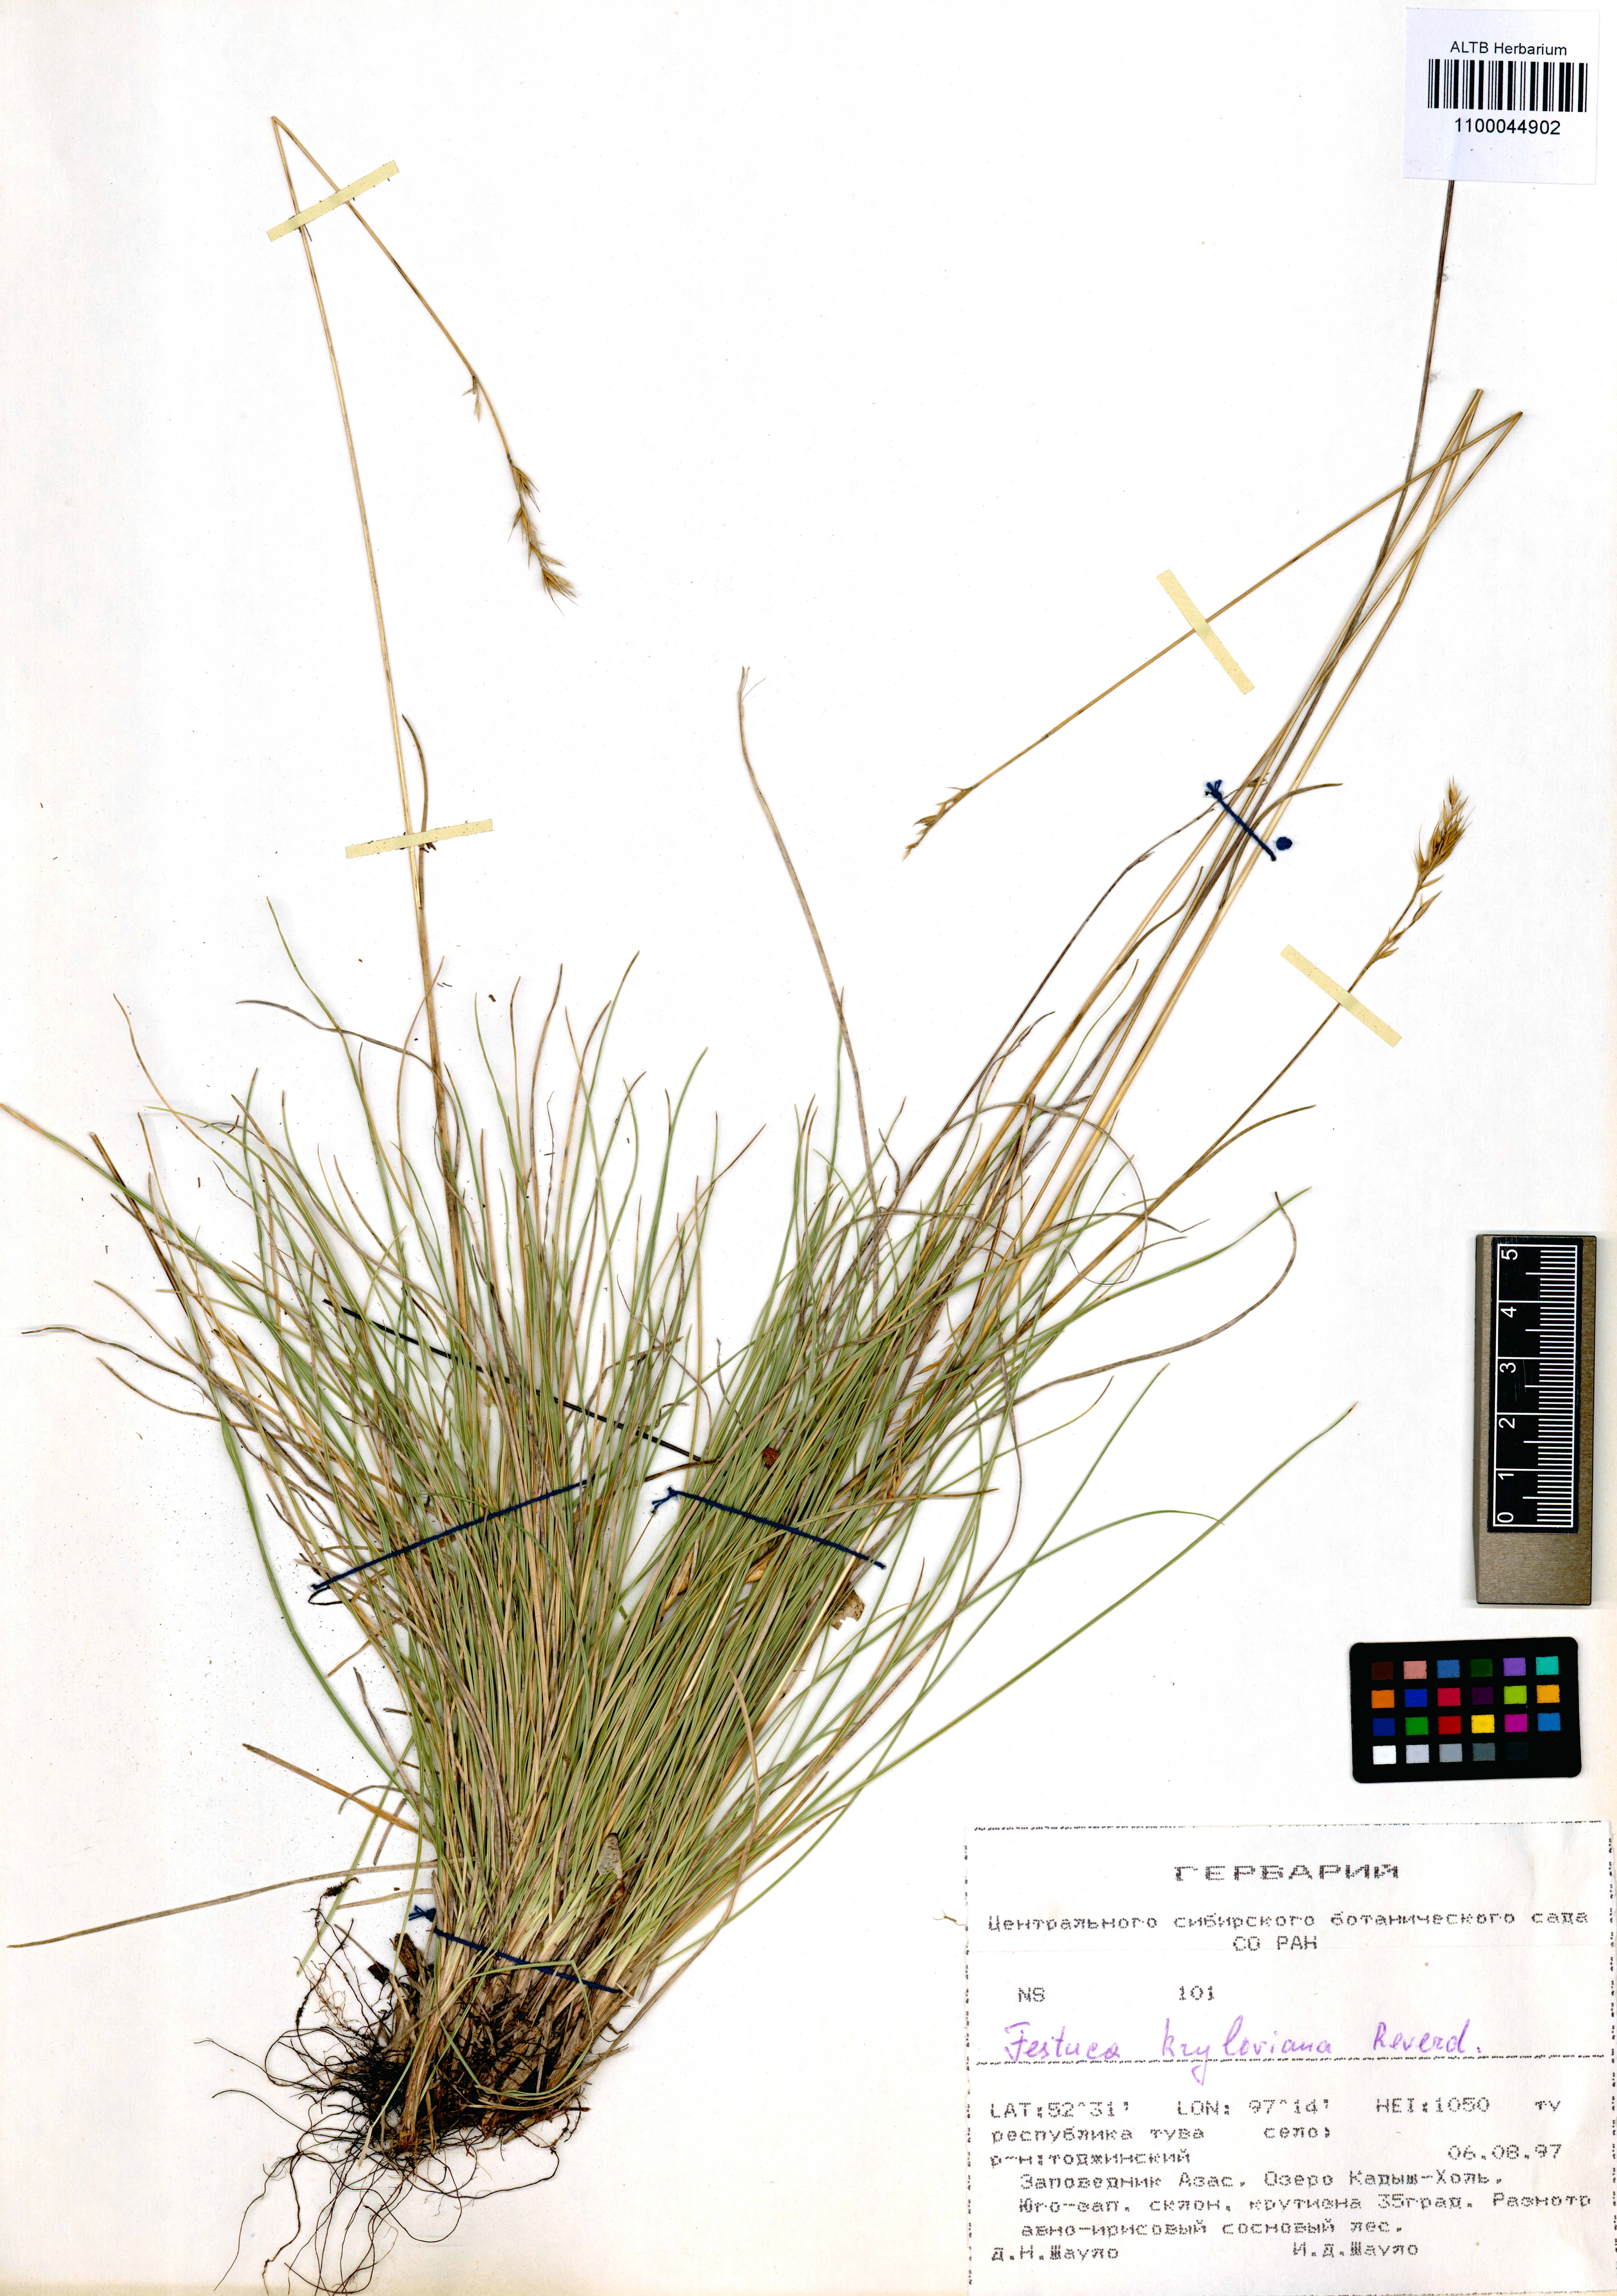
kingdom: Plantae
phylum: Tracheophyta
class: Liliopsida
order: Poales
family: Poaceae
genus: Festuca
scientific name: Festuca kryloviana
